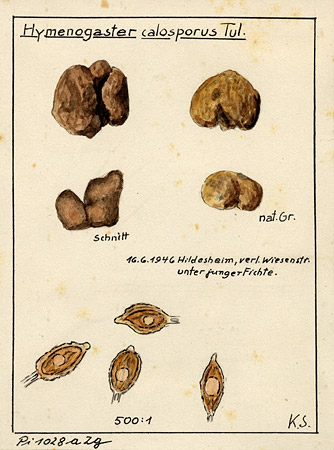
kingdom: Fungi
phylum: Basidiomycota
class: Agaricomycetes
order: Agaricales
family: Hymenogastraceae
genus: Hymenogaster
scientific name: Hymenogaster calosporus
